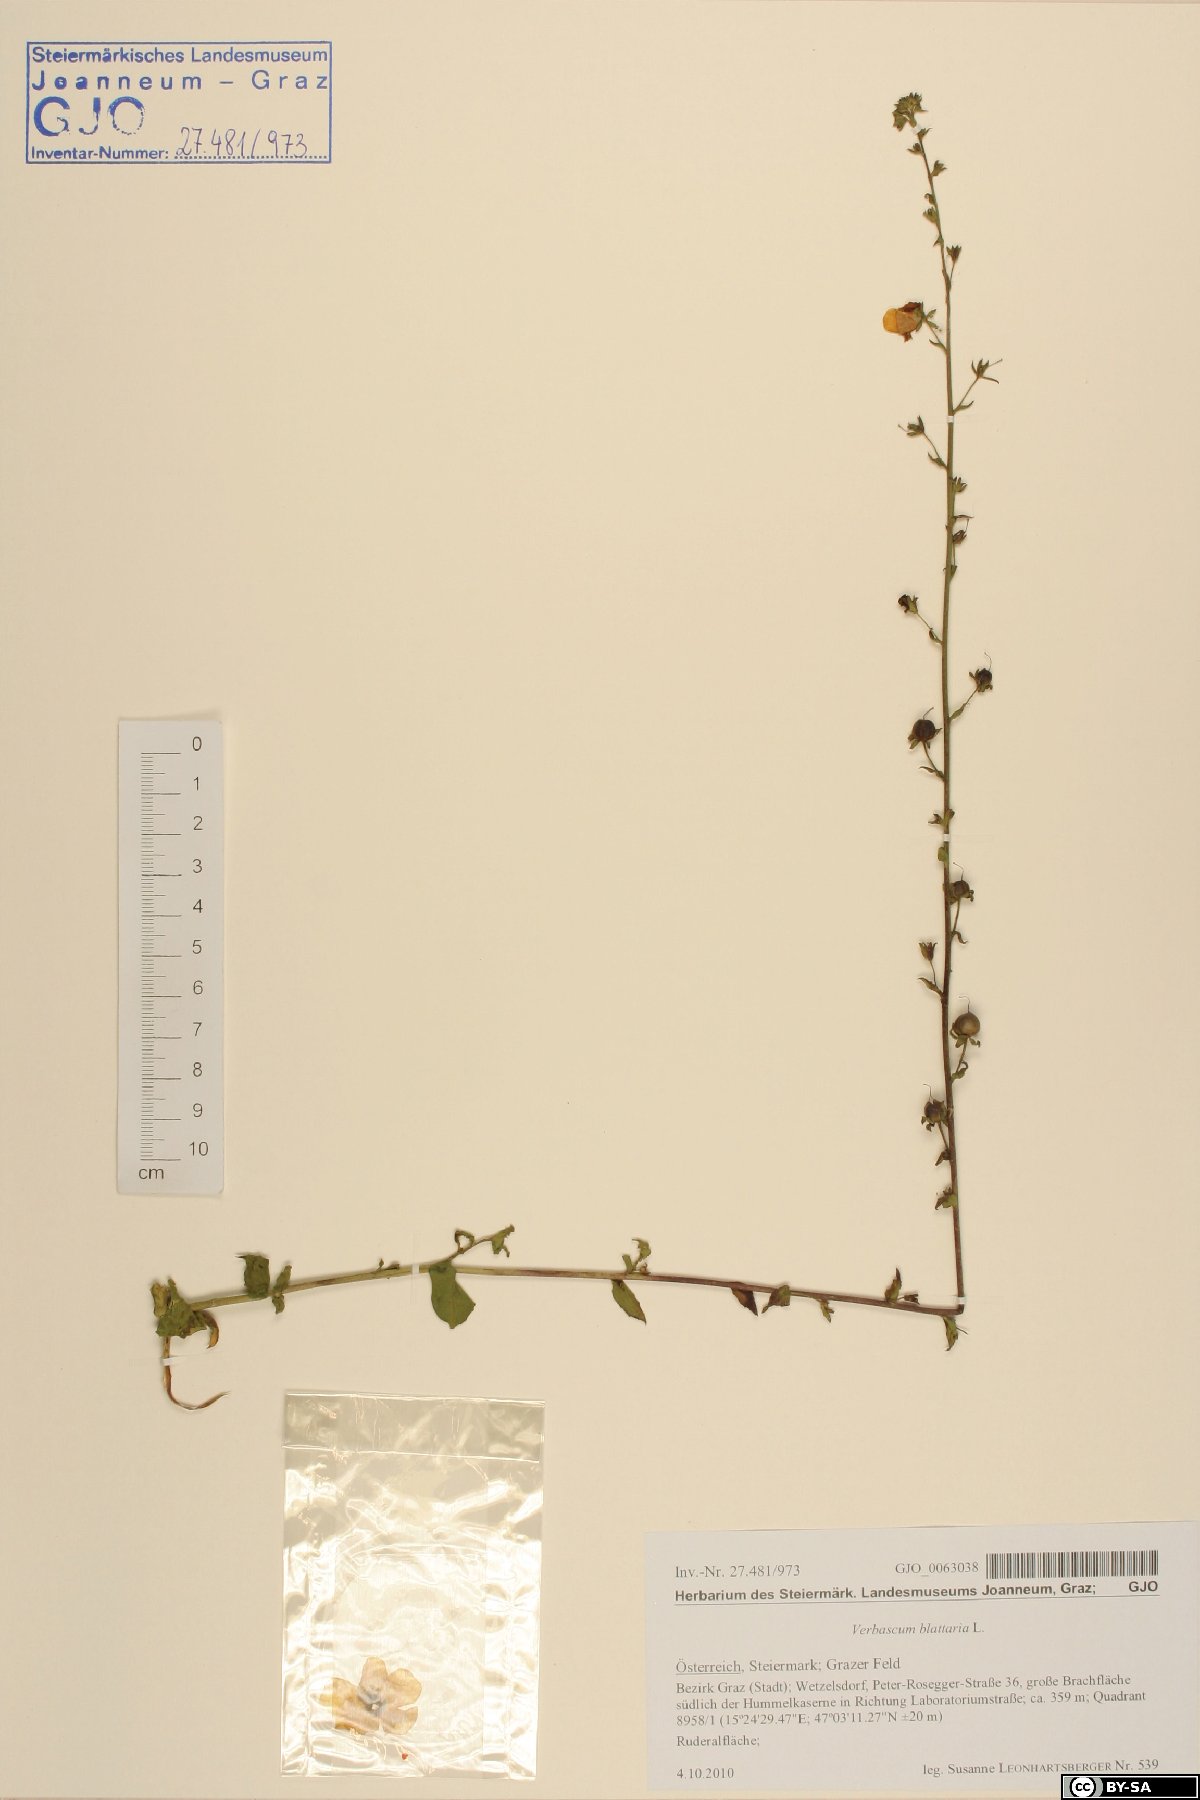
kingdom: Plantae
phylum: Tracheophyta
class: Magnoliopsida
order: Lamiales
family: Scrophulariaceae
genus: Verbascum
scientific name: Verbascum blattaria
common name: Moth mullein
